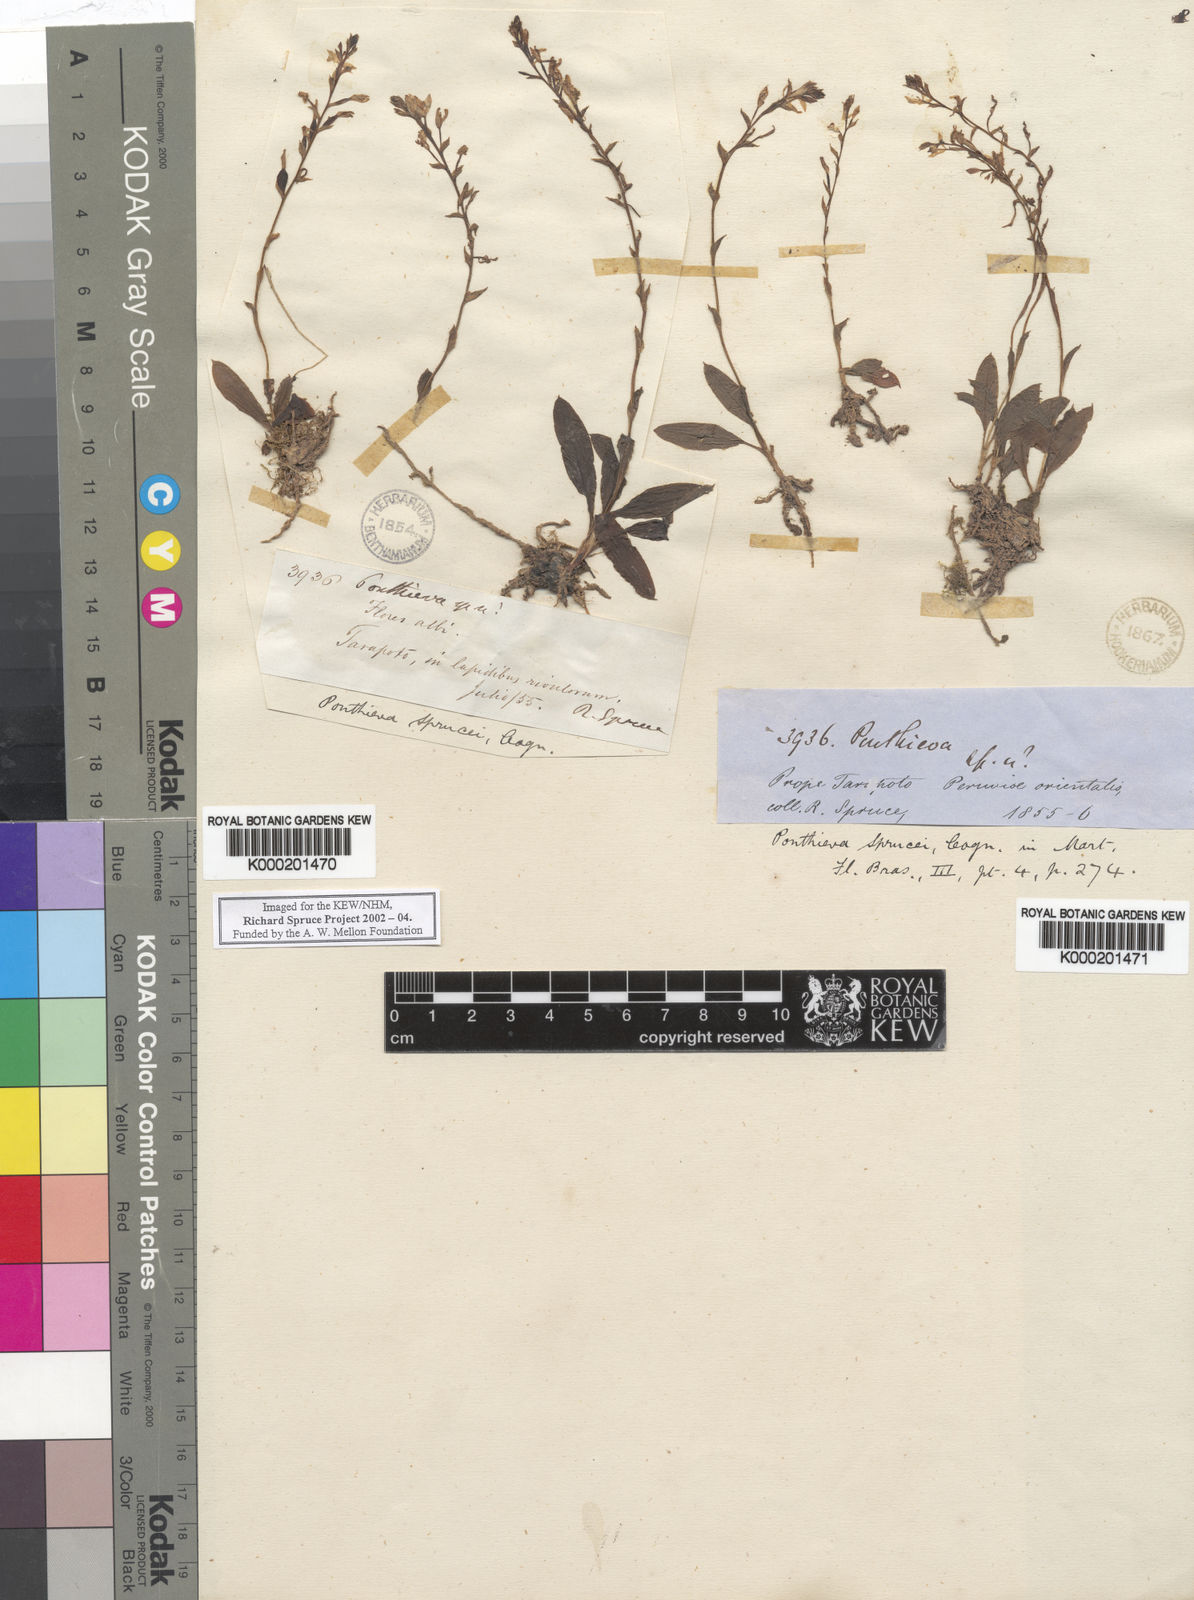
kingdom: Plantae
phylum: Tracheophyta
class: Liliopsida
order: Asparagales
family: Orchidaceae
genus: Ponthieva
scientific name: Ponthieva sprucei
